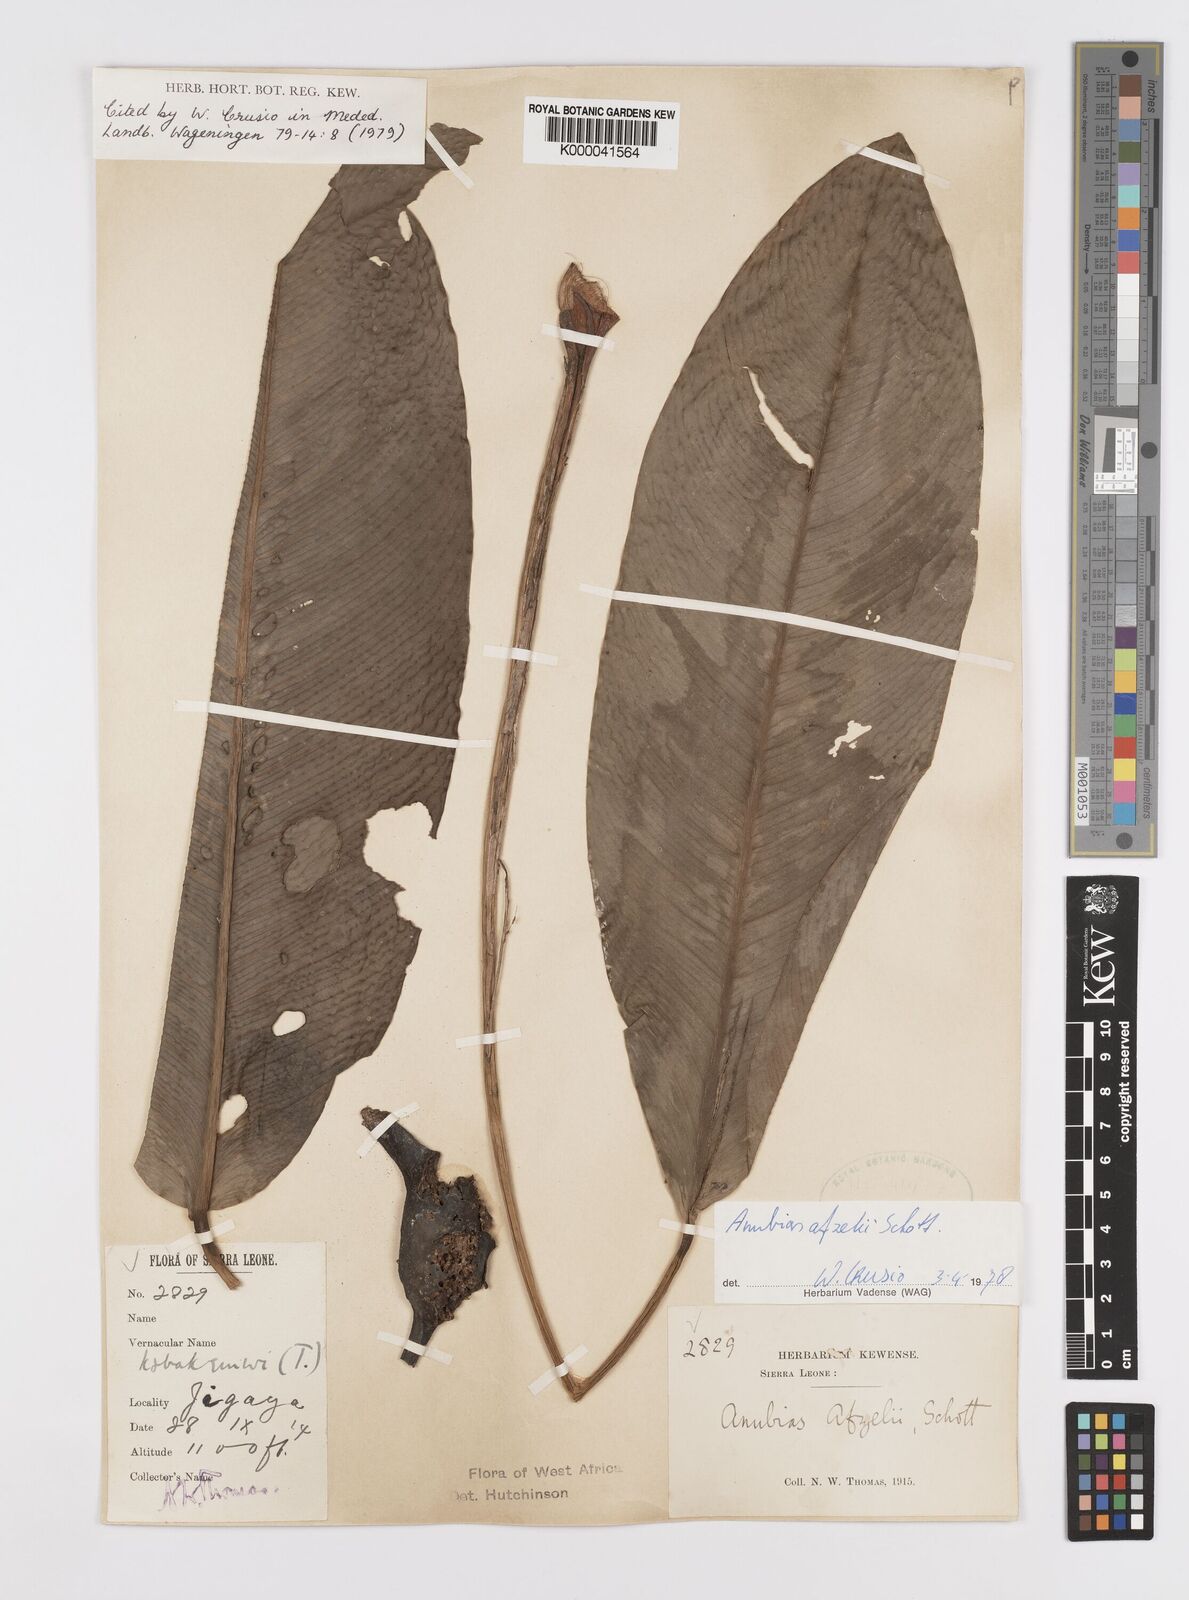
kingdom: Plantae
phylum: Tracheophyta
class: Liliopsida
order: Alismatales
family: Araceae
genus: Anubias
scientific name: Anubias afzelii
